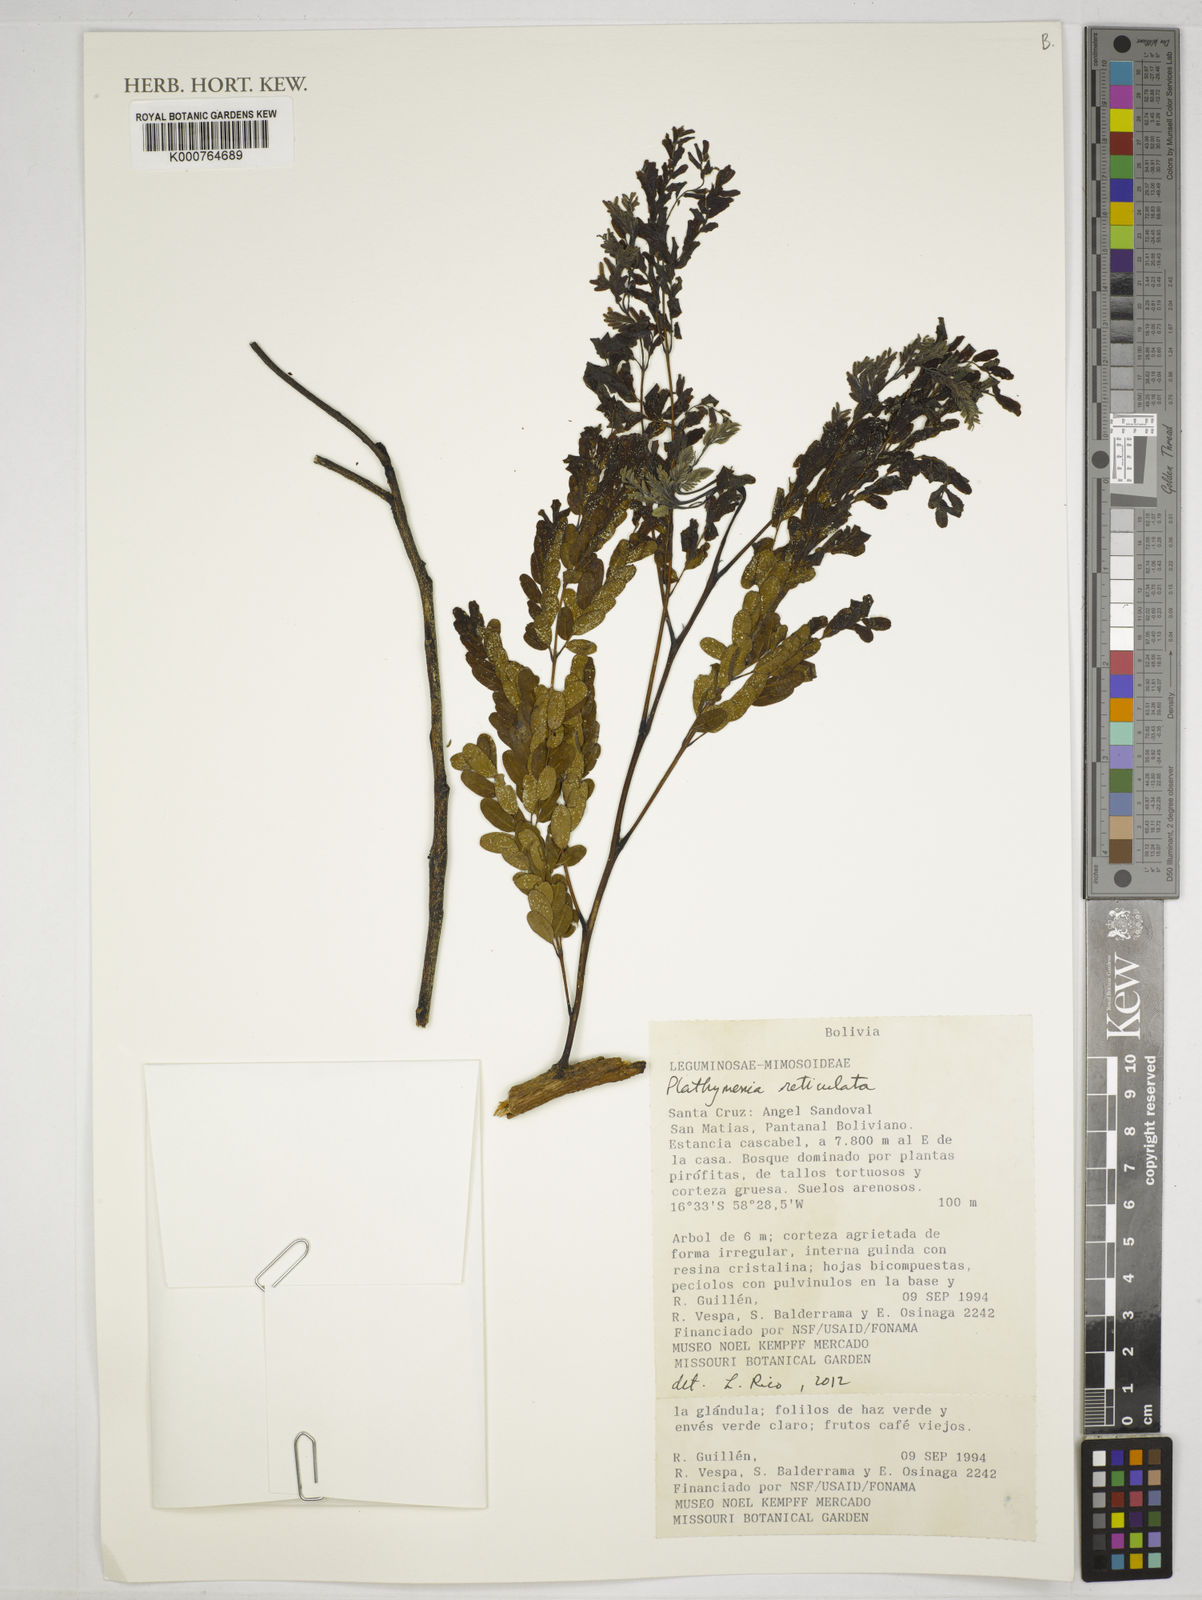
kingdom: Plantae
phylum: Tracheophyta
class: Magnoliopsida
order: Fabales
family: Fabaceae
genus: Plathymenia
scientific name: Plathymenia reticulata
